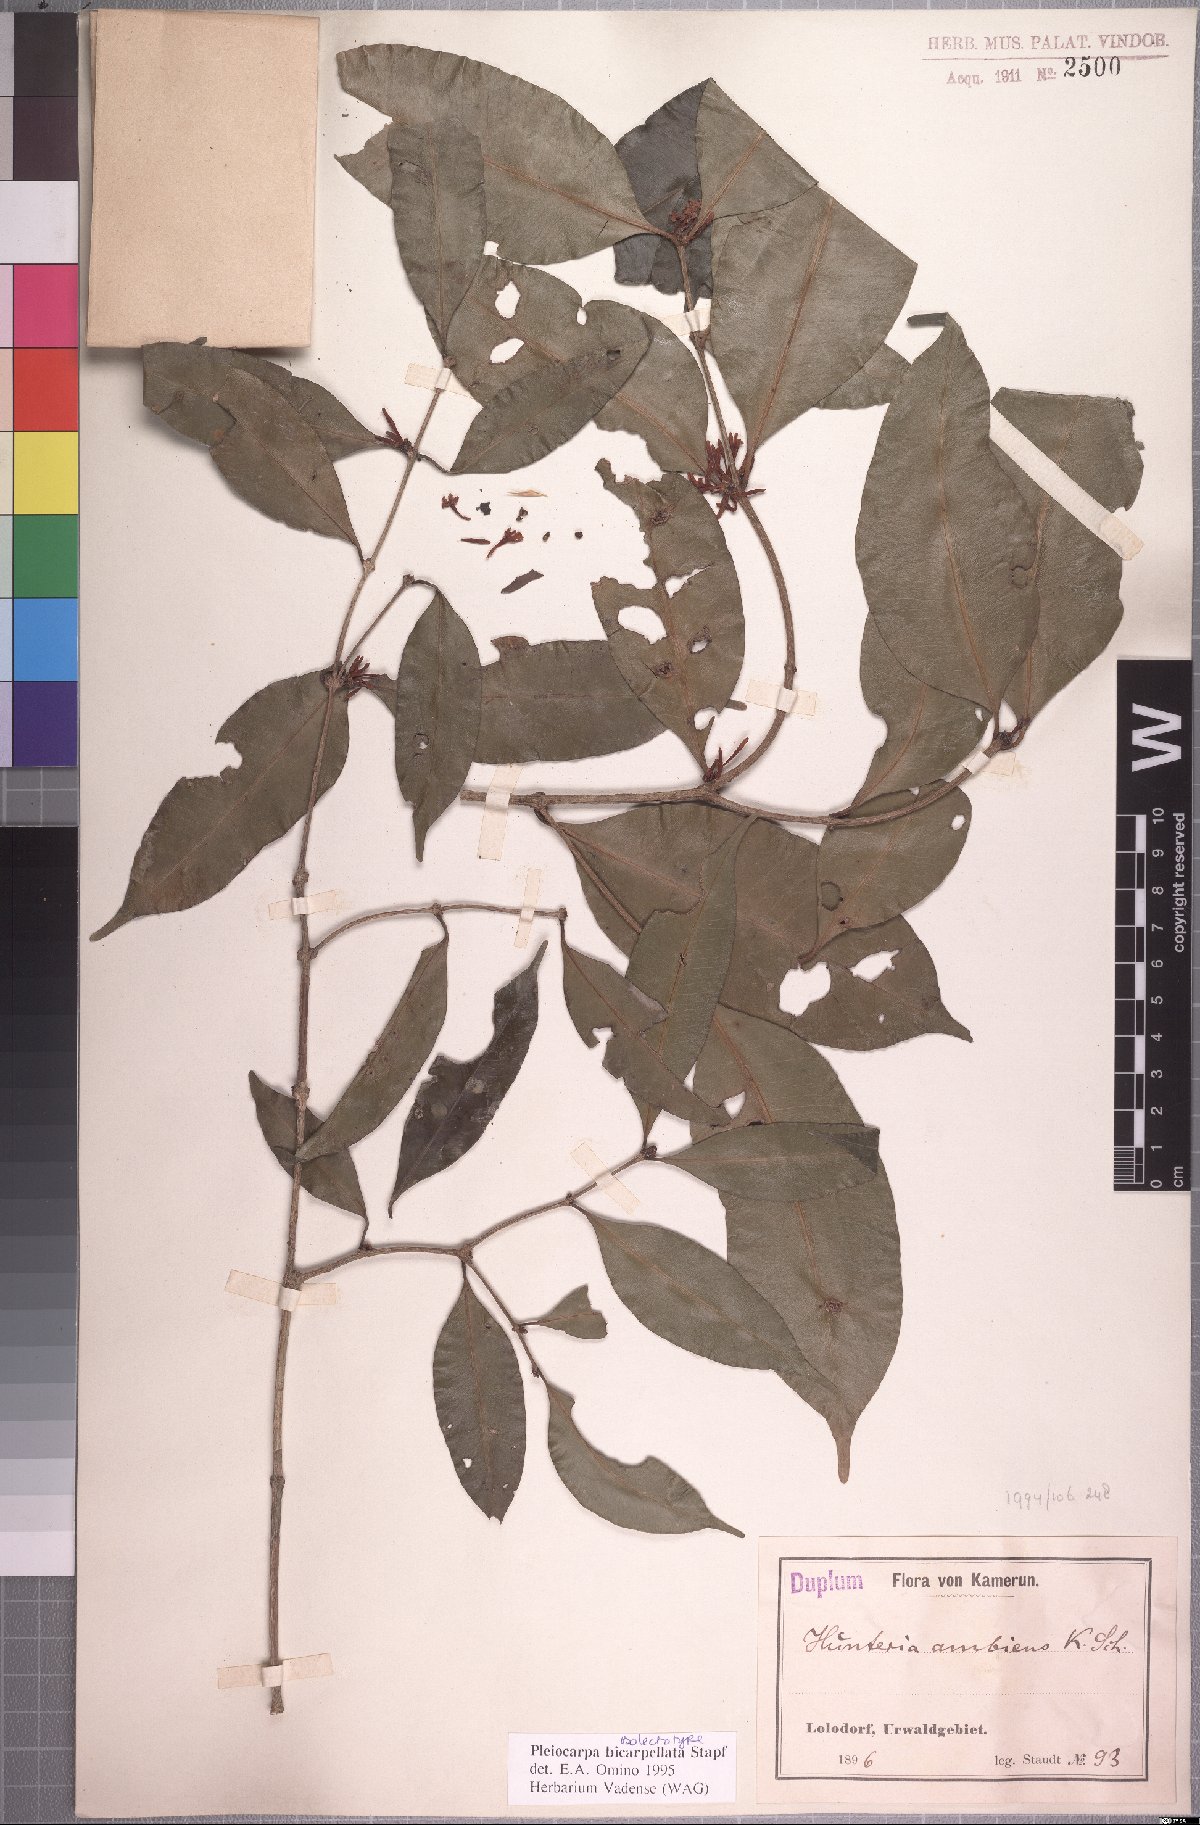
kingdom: Plantae
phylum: Tracheophyta
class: Magnoliopsida
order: Gentianales
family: Apocynaceae
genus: Pleiocarpa
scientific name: Pleiocarpa bicarpellata
